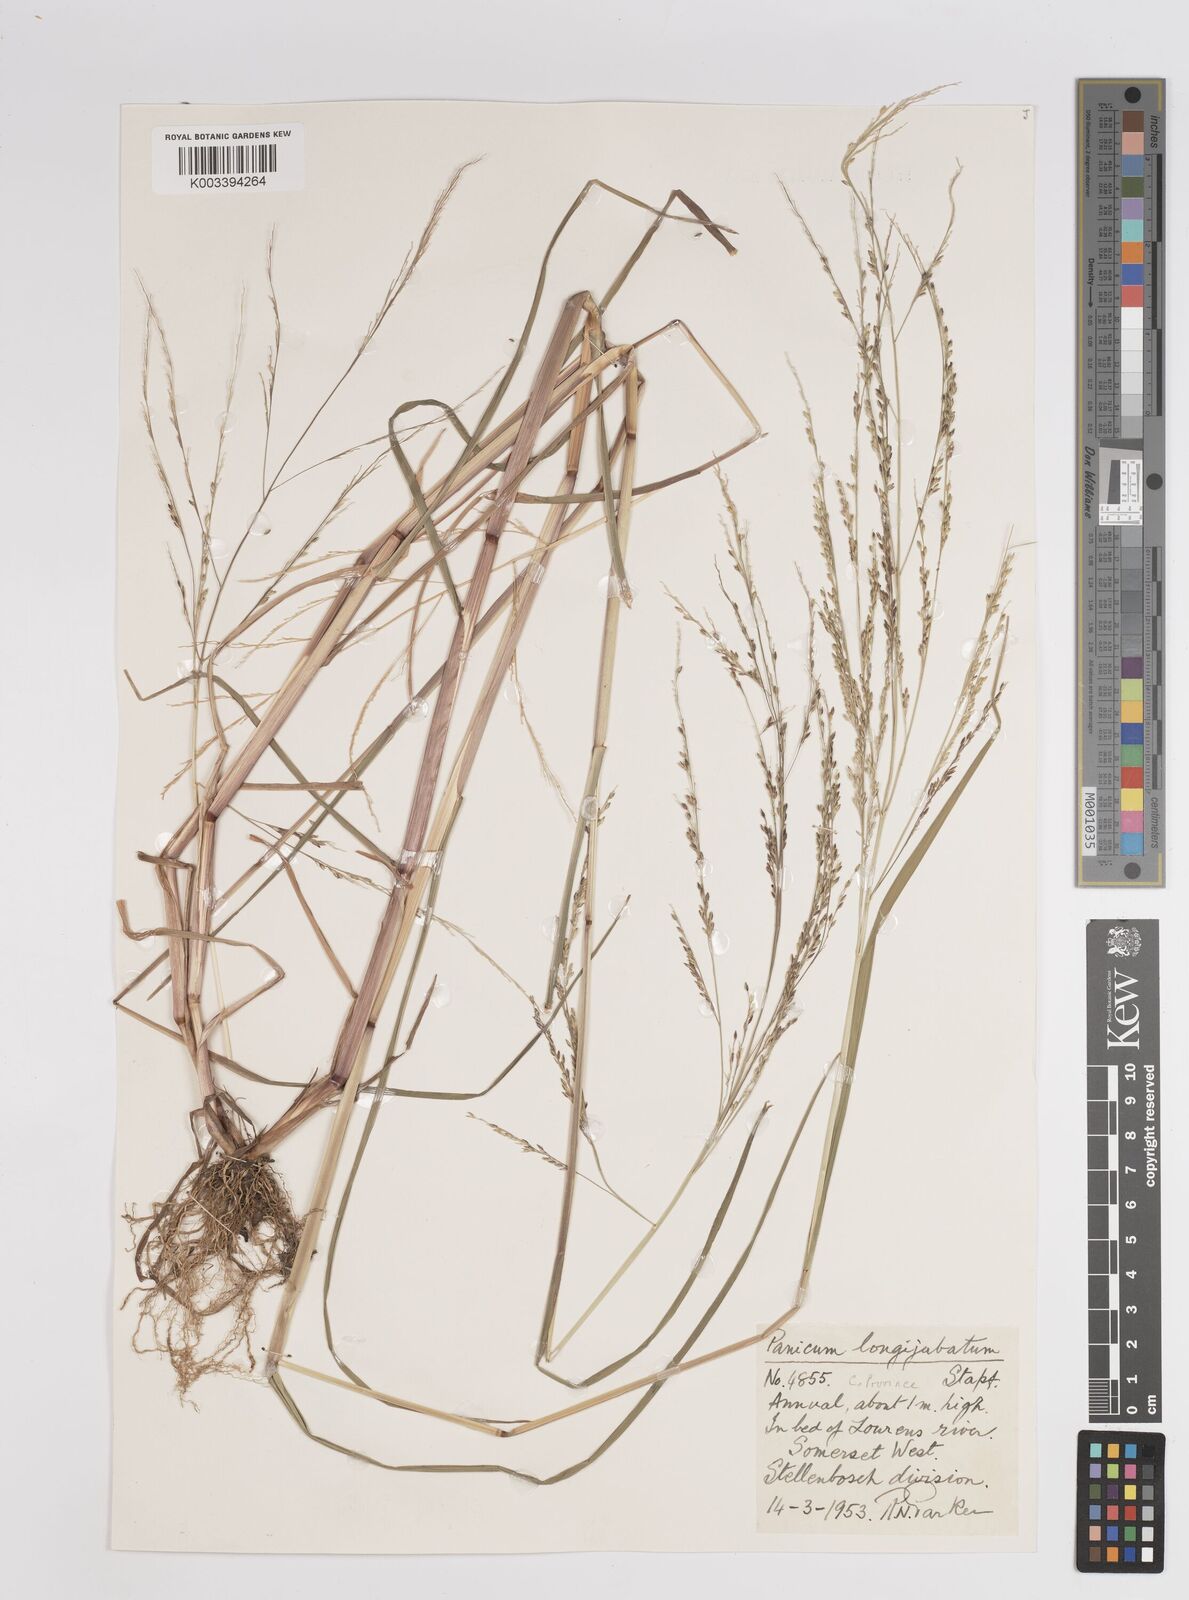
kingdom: Plantae
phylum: Tracheophyta
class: Liliopsida
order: Poales
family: Poaceae
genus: Panicum
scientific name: Panicum subalbidum
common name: Elbow buffalo grass
